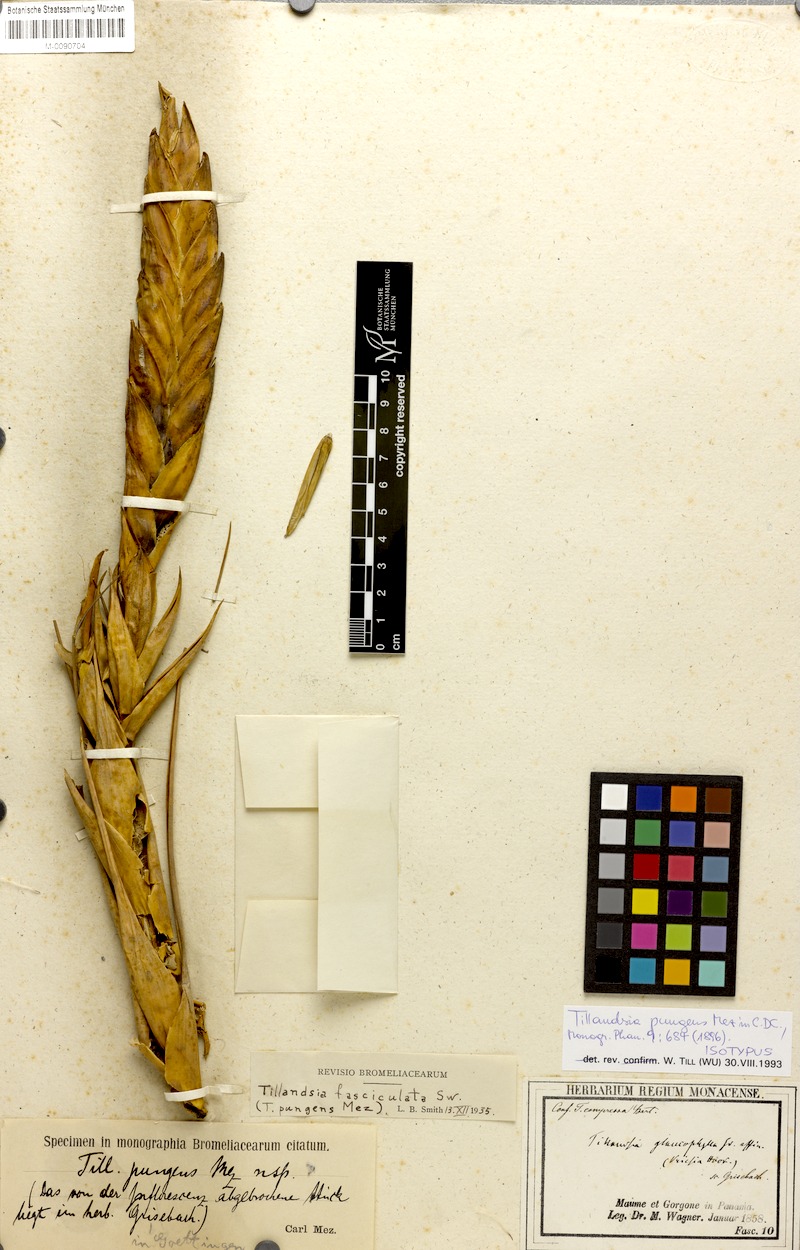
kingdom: Plantae
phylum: Tracheophyta
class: Liliopsida
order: Poales
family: Bromeliaceae
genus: Tillandsia
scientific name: Tillandsia fasciculata
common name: Giant airplant
